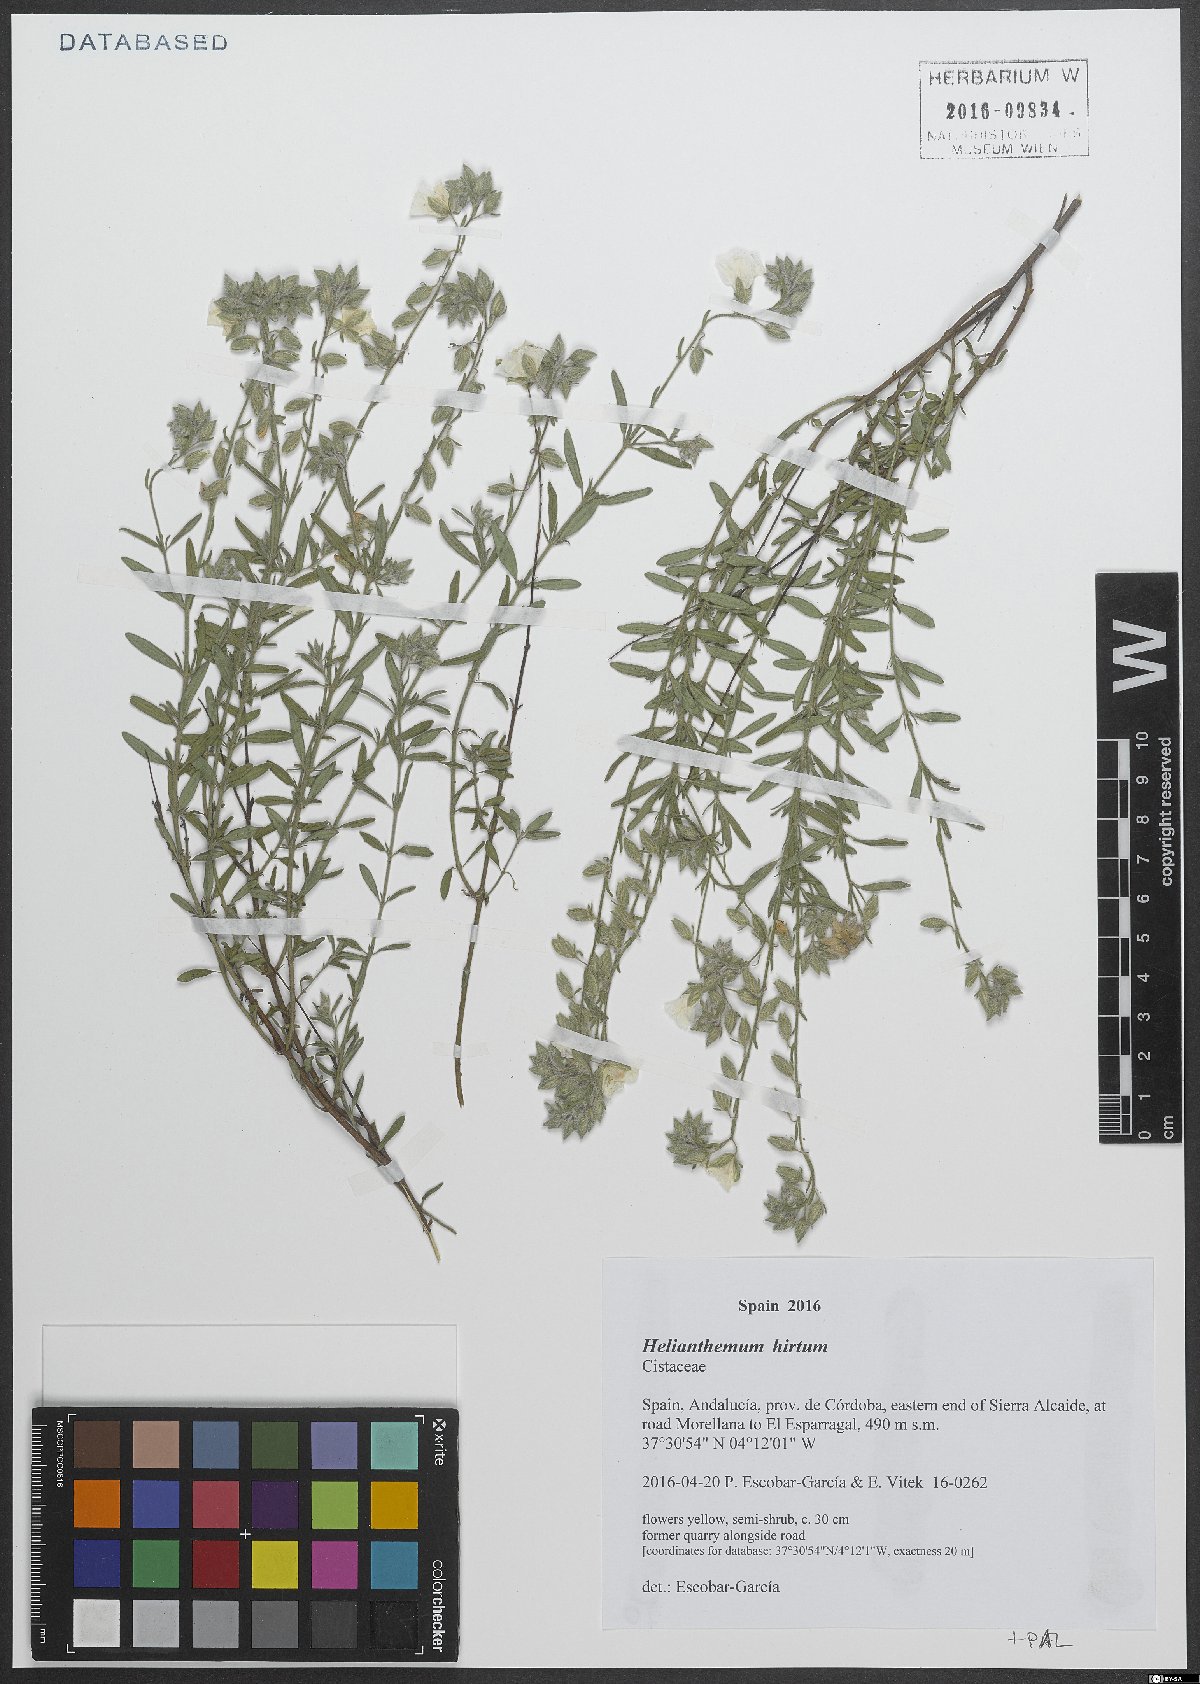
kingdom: Plantae
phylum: Tracheophyta
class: Magnoliopsida
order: Malvales
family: Cistaceae
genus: Helianthemum
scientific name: Helianthemum hirtum
